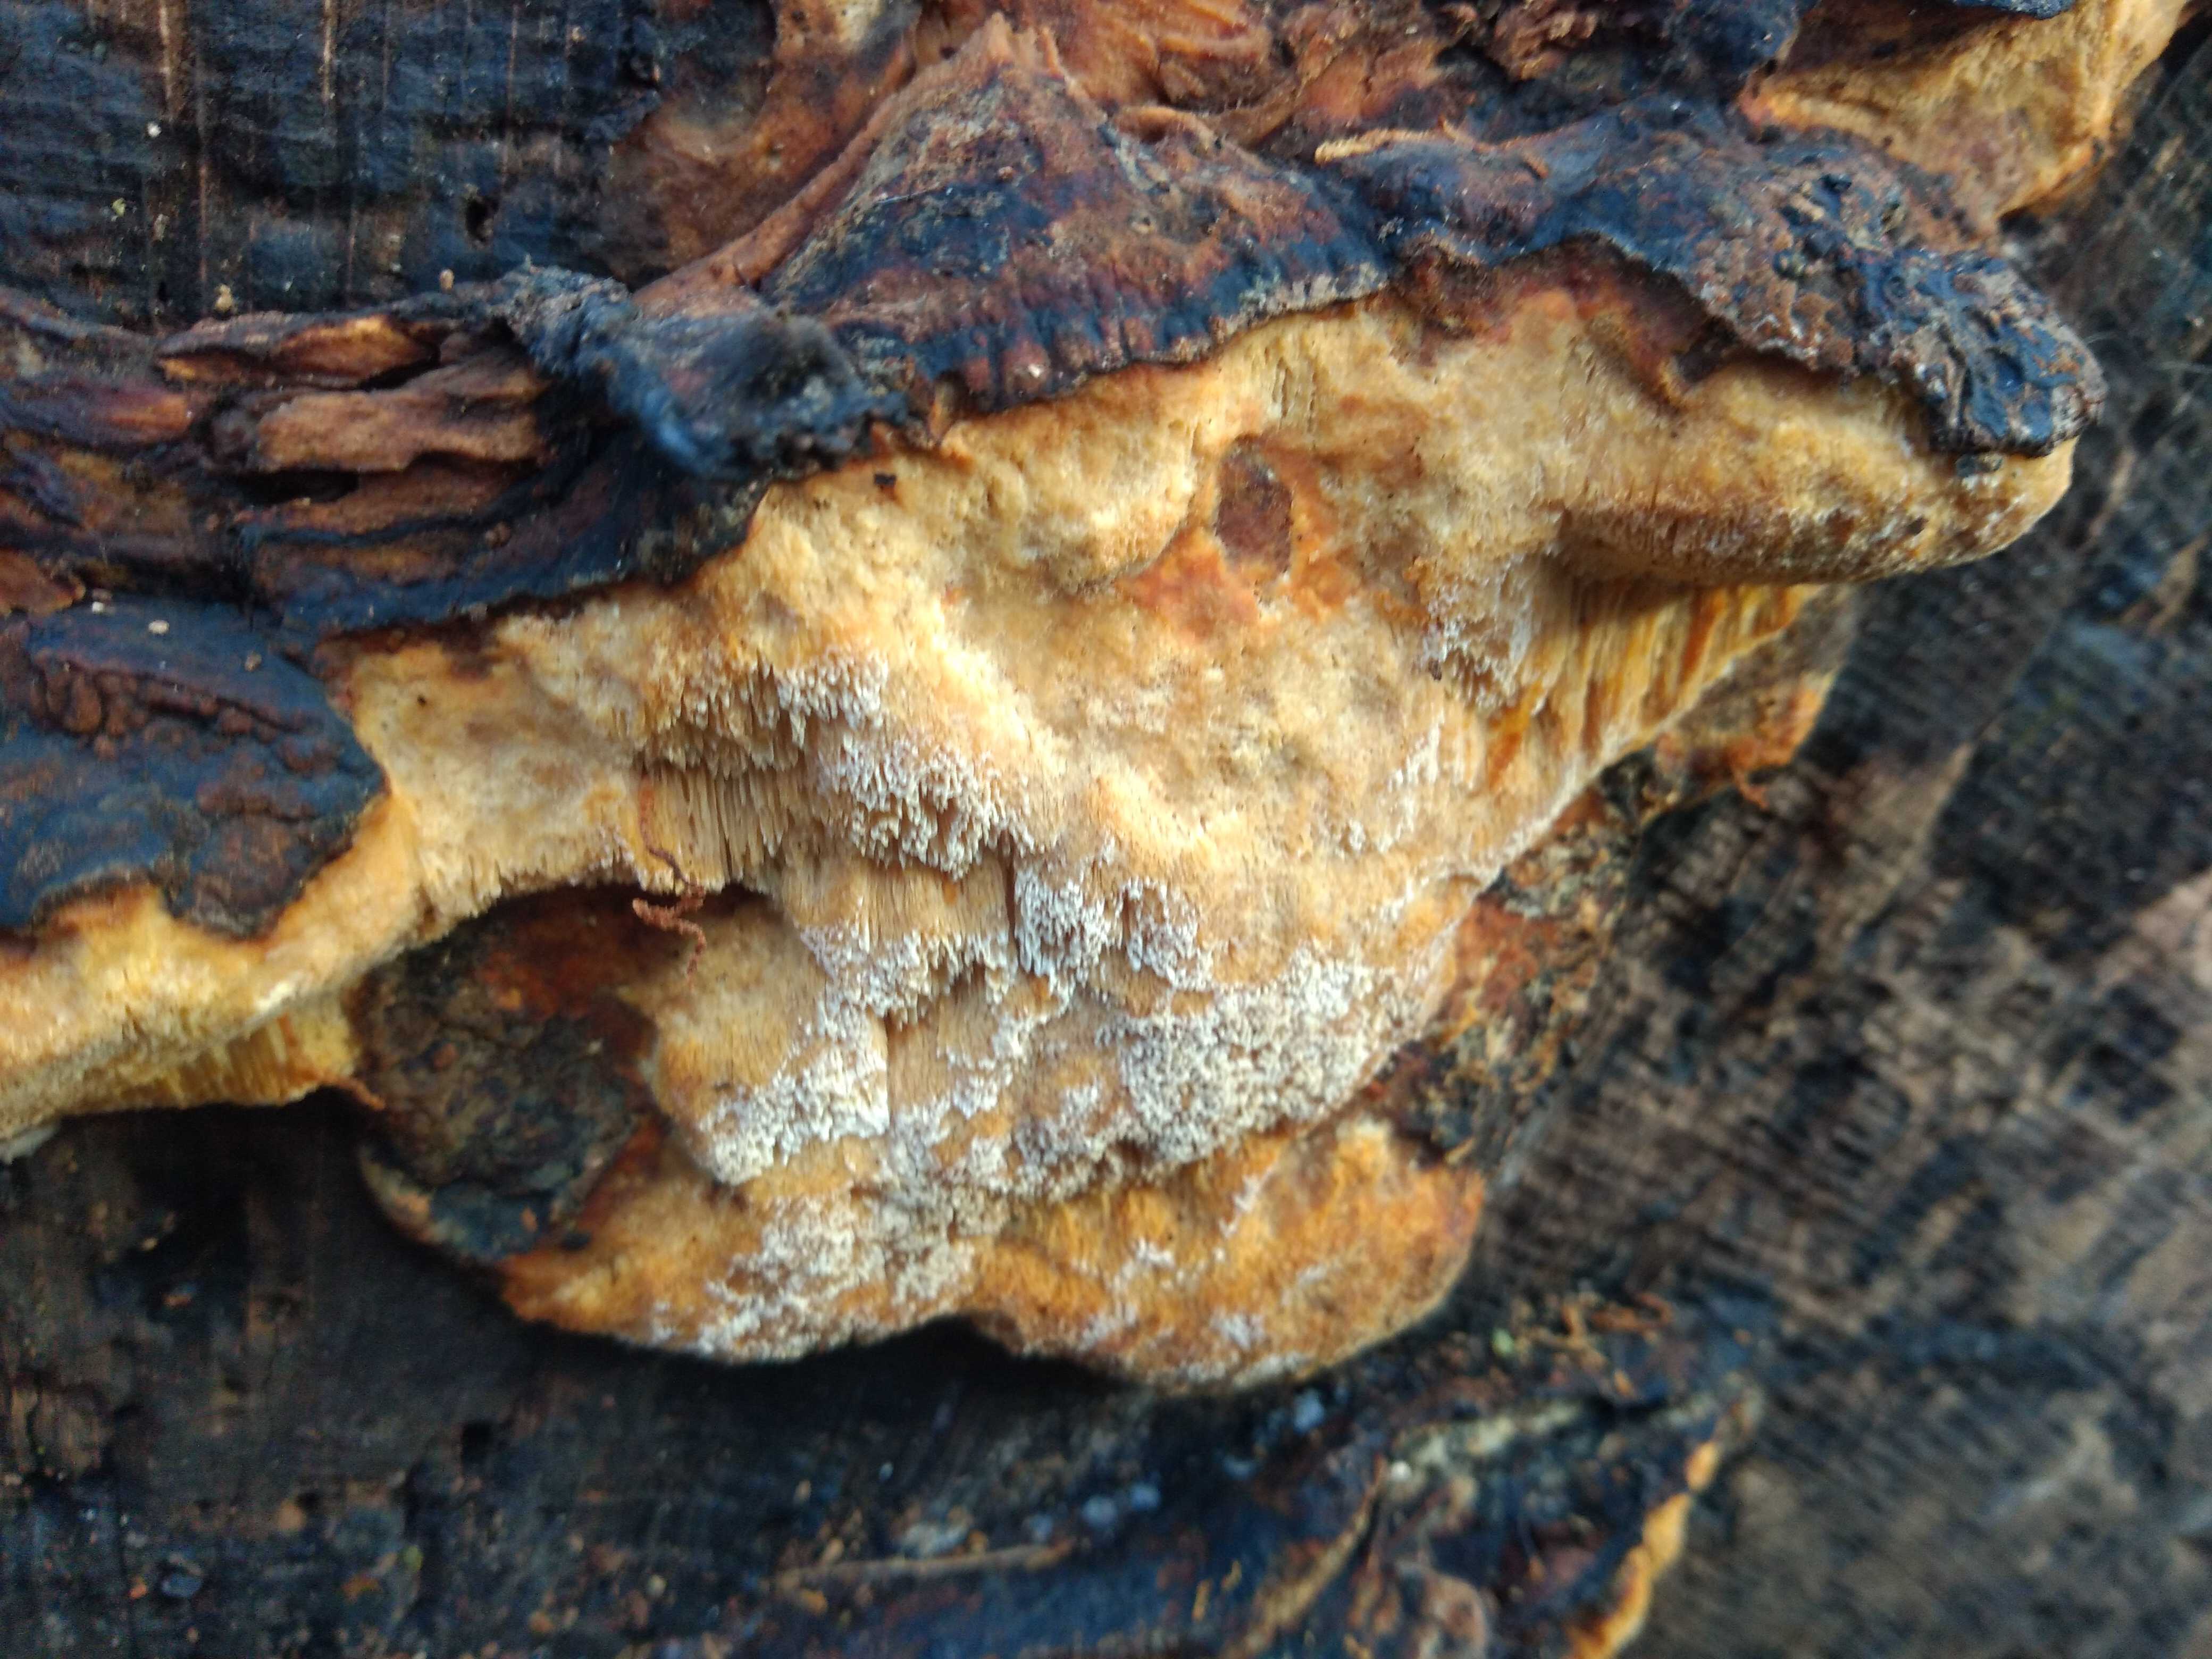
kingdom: Fungi
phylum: Basidiomycota
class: Agaricomycetes
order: Polyporales
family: Ischnodermataceae
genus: Ischnoderma
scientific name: Ischnoderma resinosum
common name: løv-tjæreporesvamp
